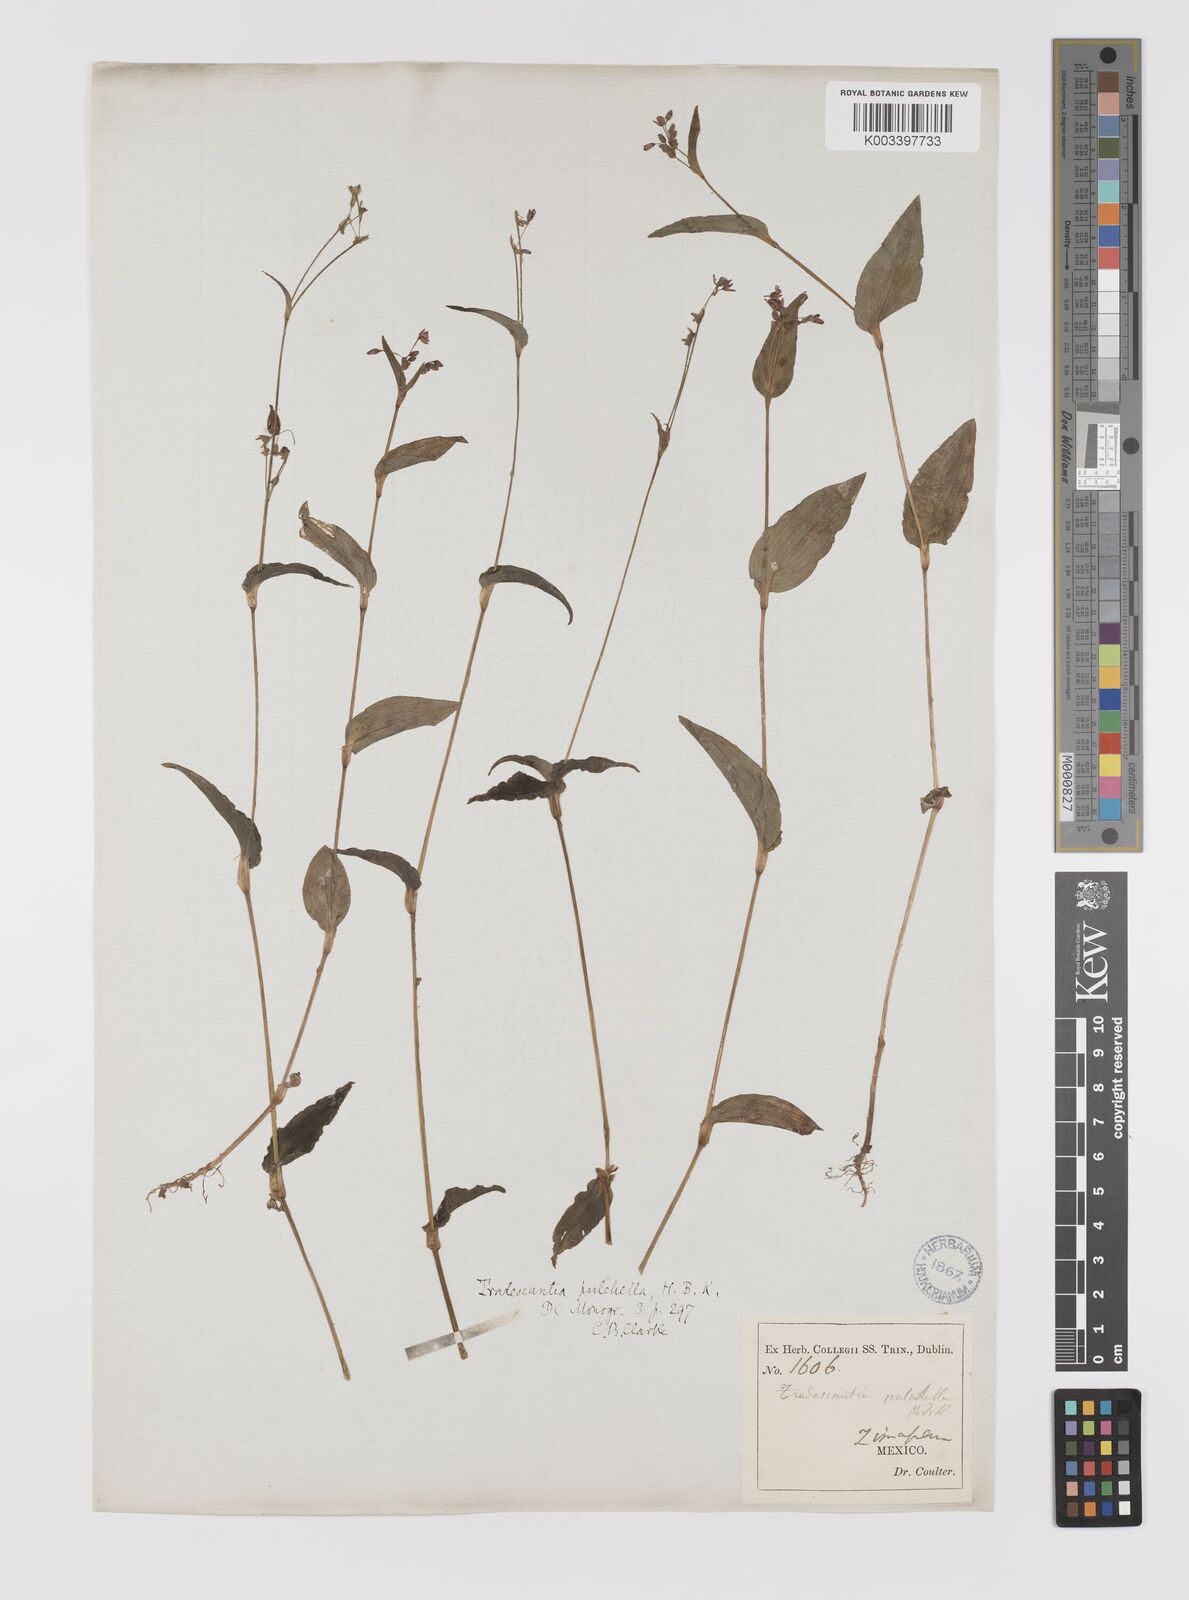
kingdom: Plantae
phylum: Tracheophyta
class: Liliopsida
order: Commelinales
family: Commelinaceae
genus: Gibasis
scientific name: Gibasis pulchella
